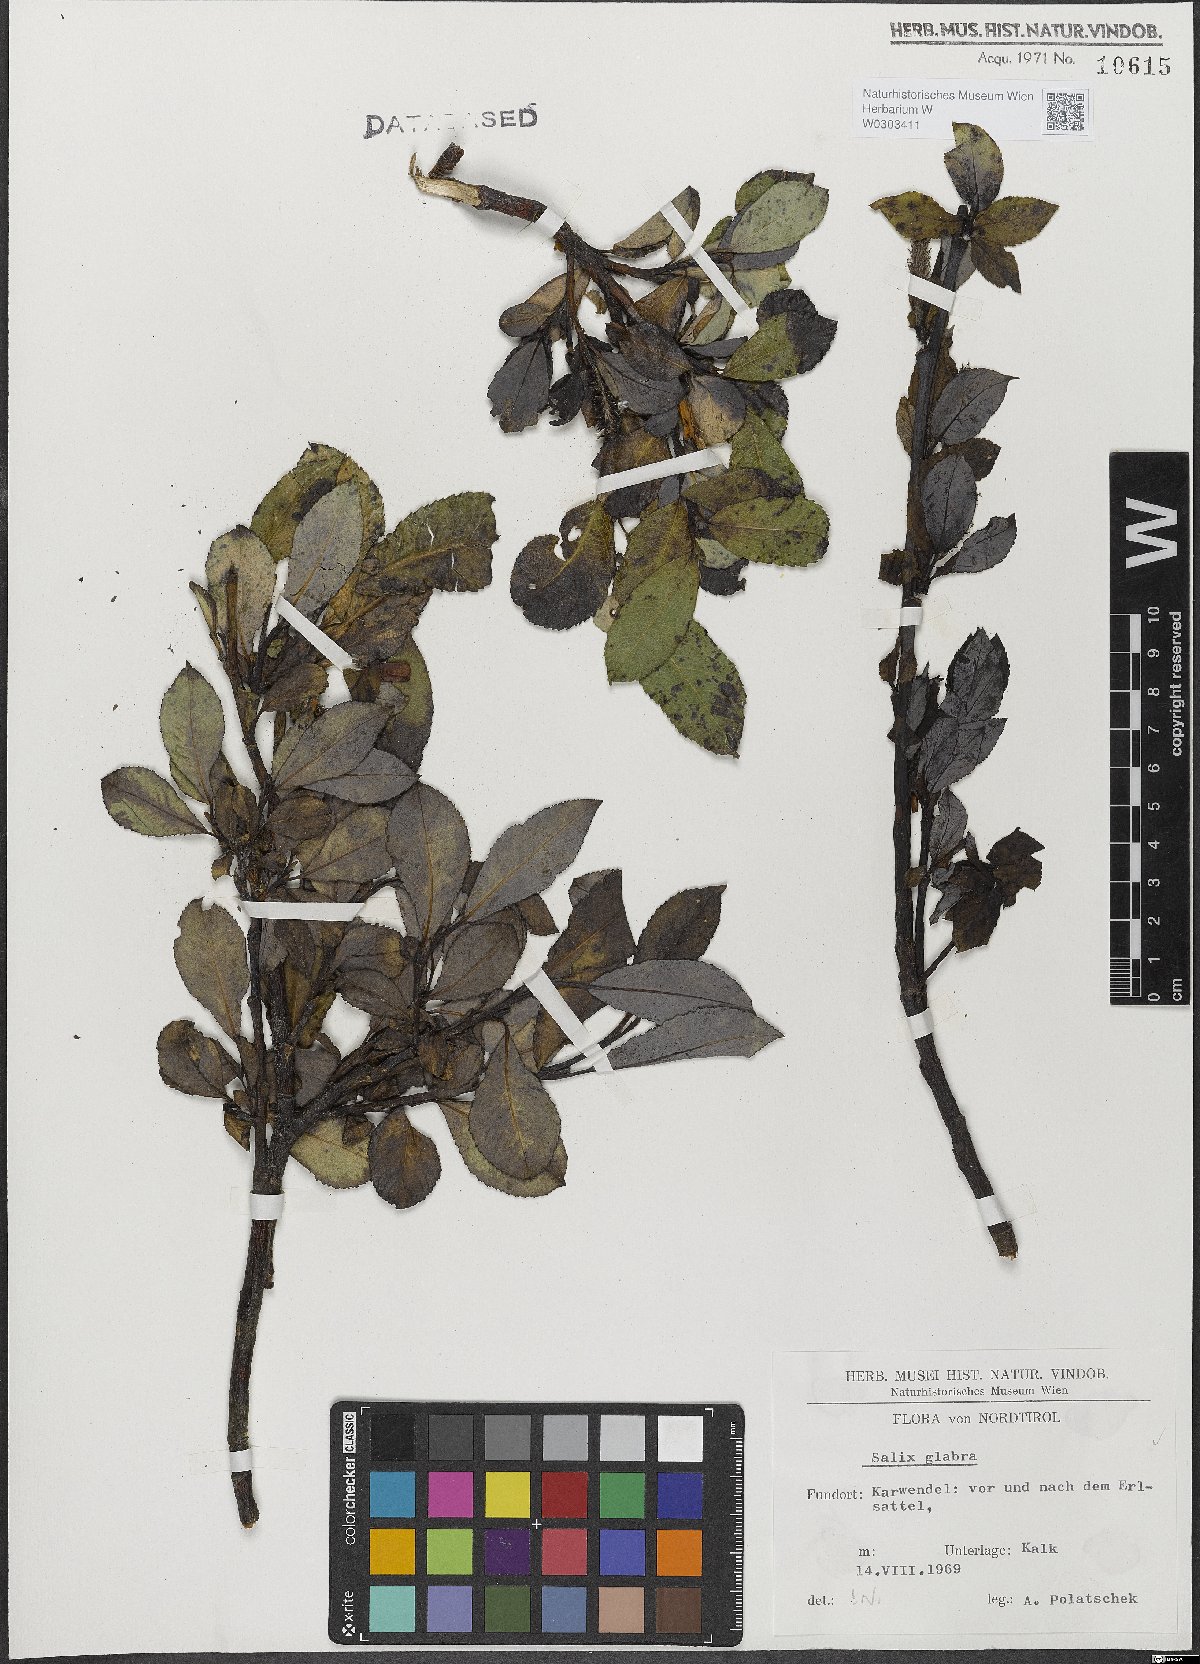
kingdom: Plantae
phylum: Tracheophyta
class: Magnoliopsida
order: Malpighiales
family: Salicaceae
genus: Salix
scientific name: Salix glabra
